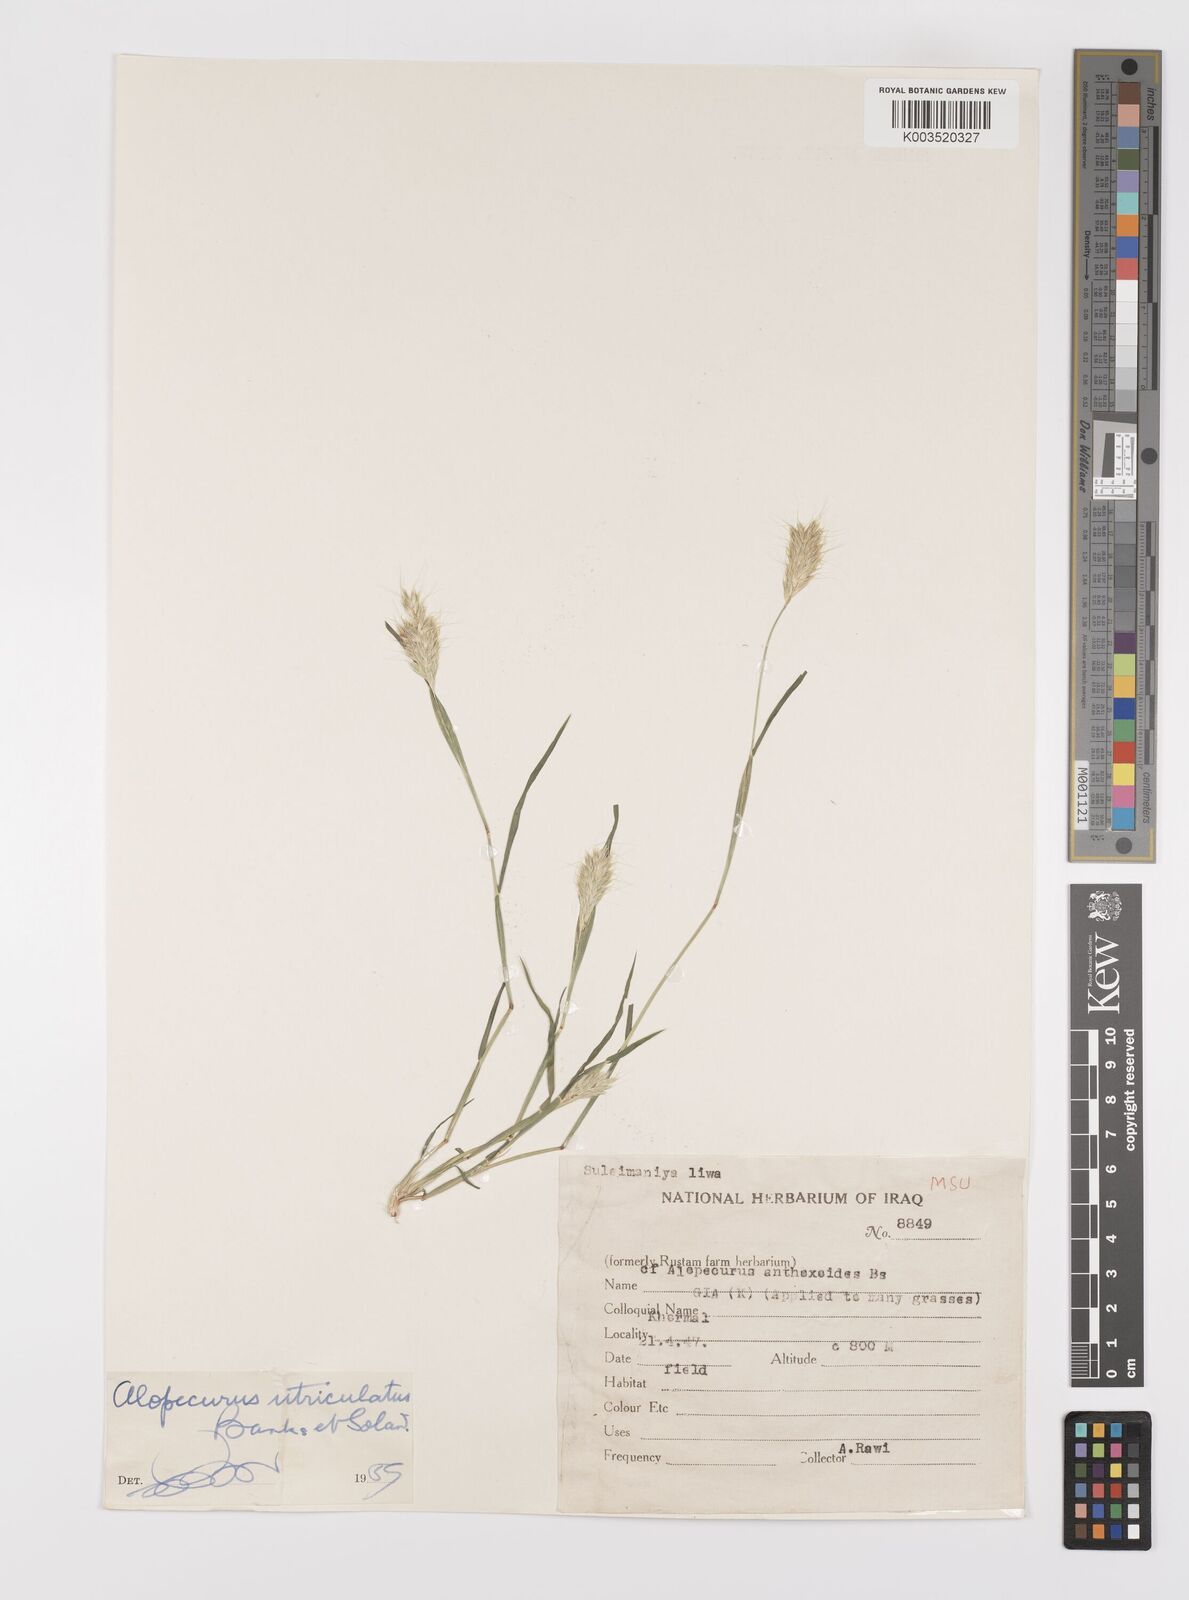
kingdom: Plantae
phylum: Tracheophyta
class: Liliopsida
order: Poales
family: Poaceae
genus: Alopecurus
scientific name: Alopecurus utriculatus
